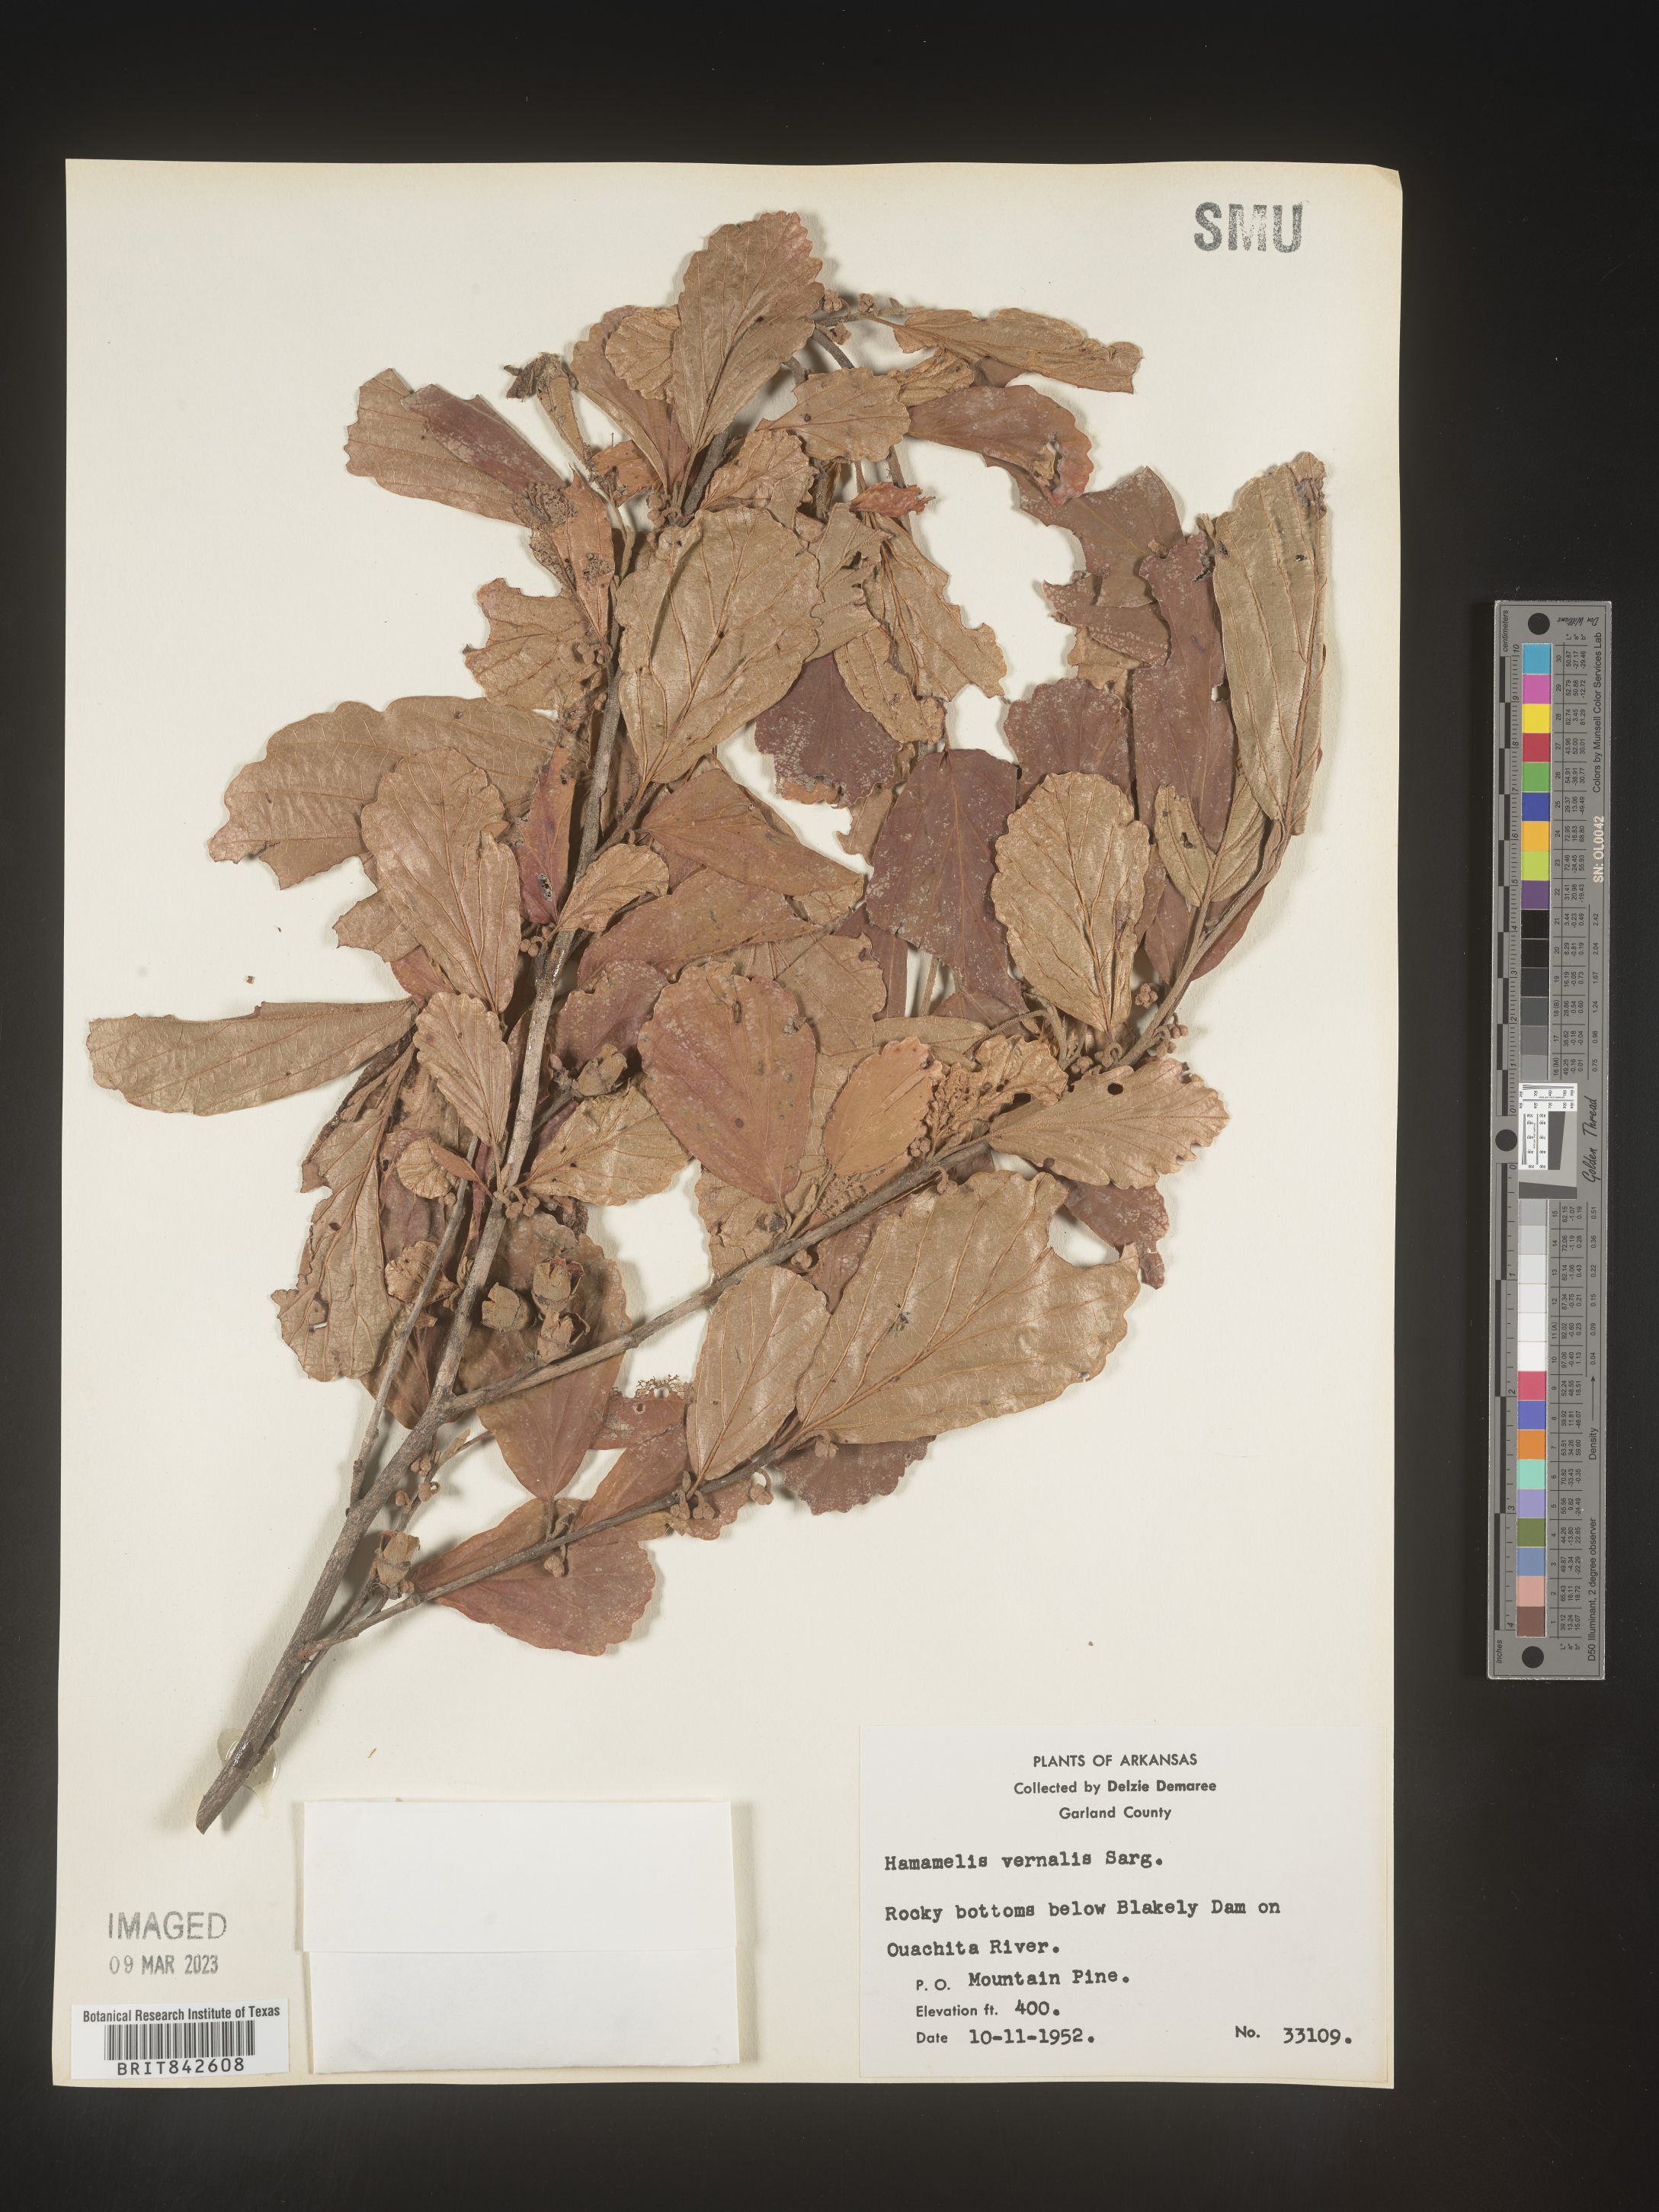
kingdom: Plantae
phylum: Tracheophyta
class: Magnoliopsida
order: Saxifragales
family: Hamamelidaceae
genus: Hamamelis
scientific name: Hamamelis vernalis
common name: Ozark witch-hazel
